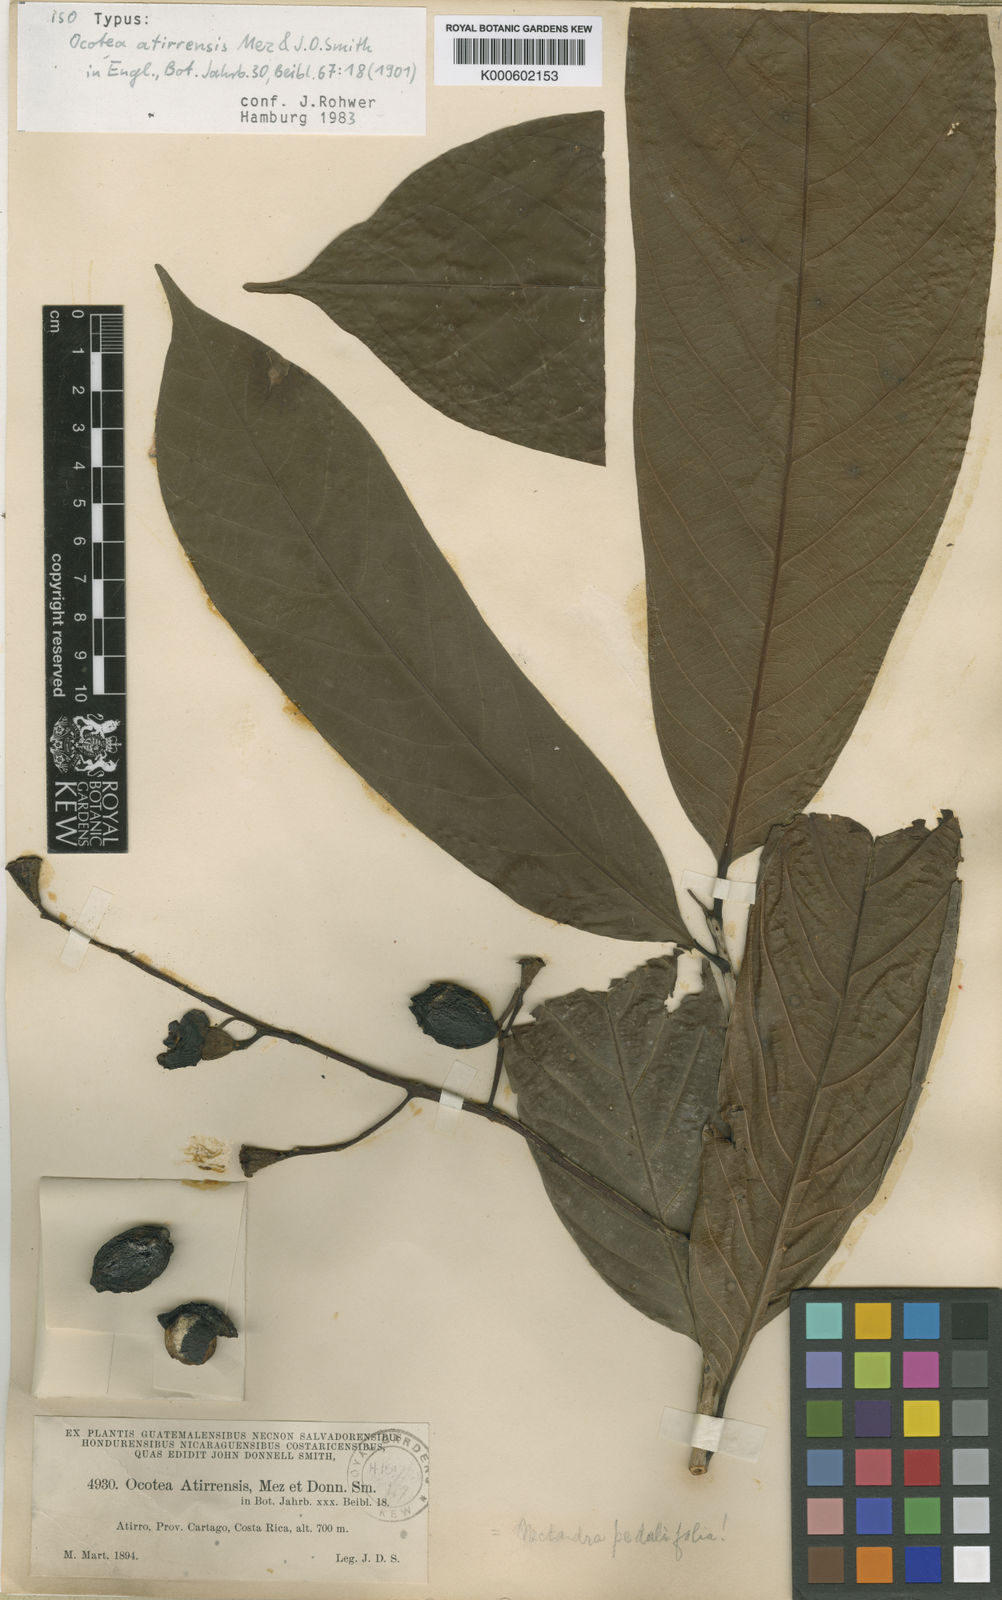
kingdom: Plantae
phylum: Tracheophyta
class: Magnoliopsida
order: Laurales
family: Lauraceae
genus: Ocotea
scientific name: Ocotea atirrensis
